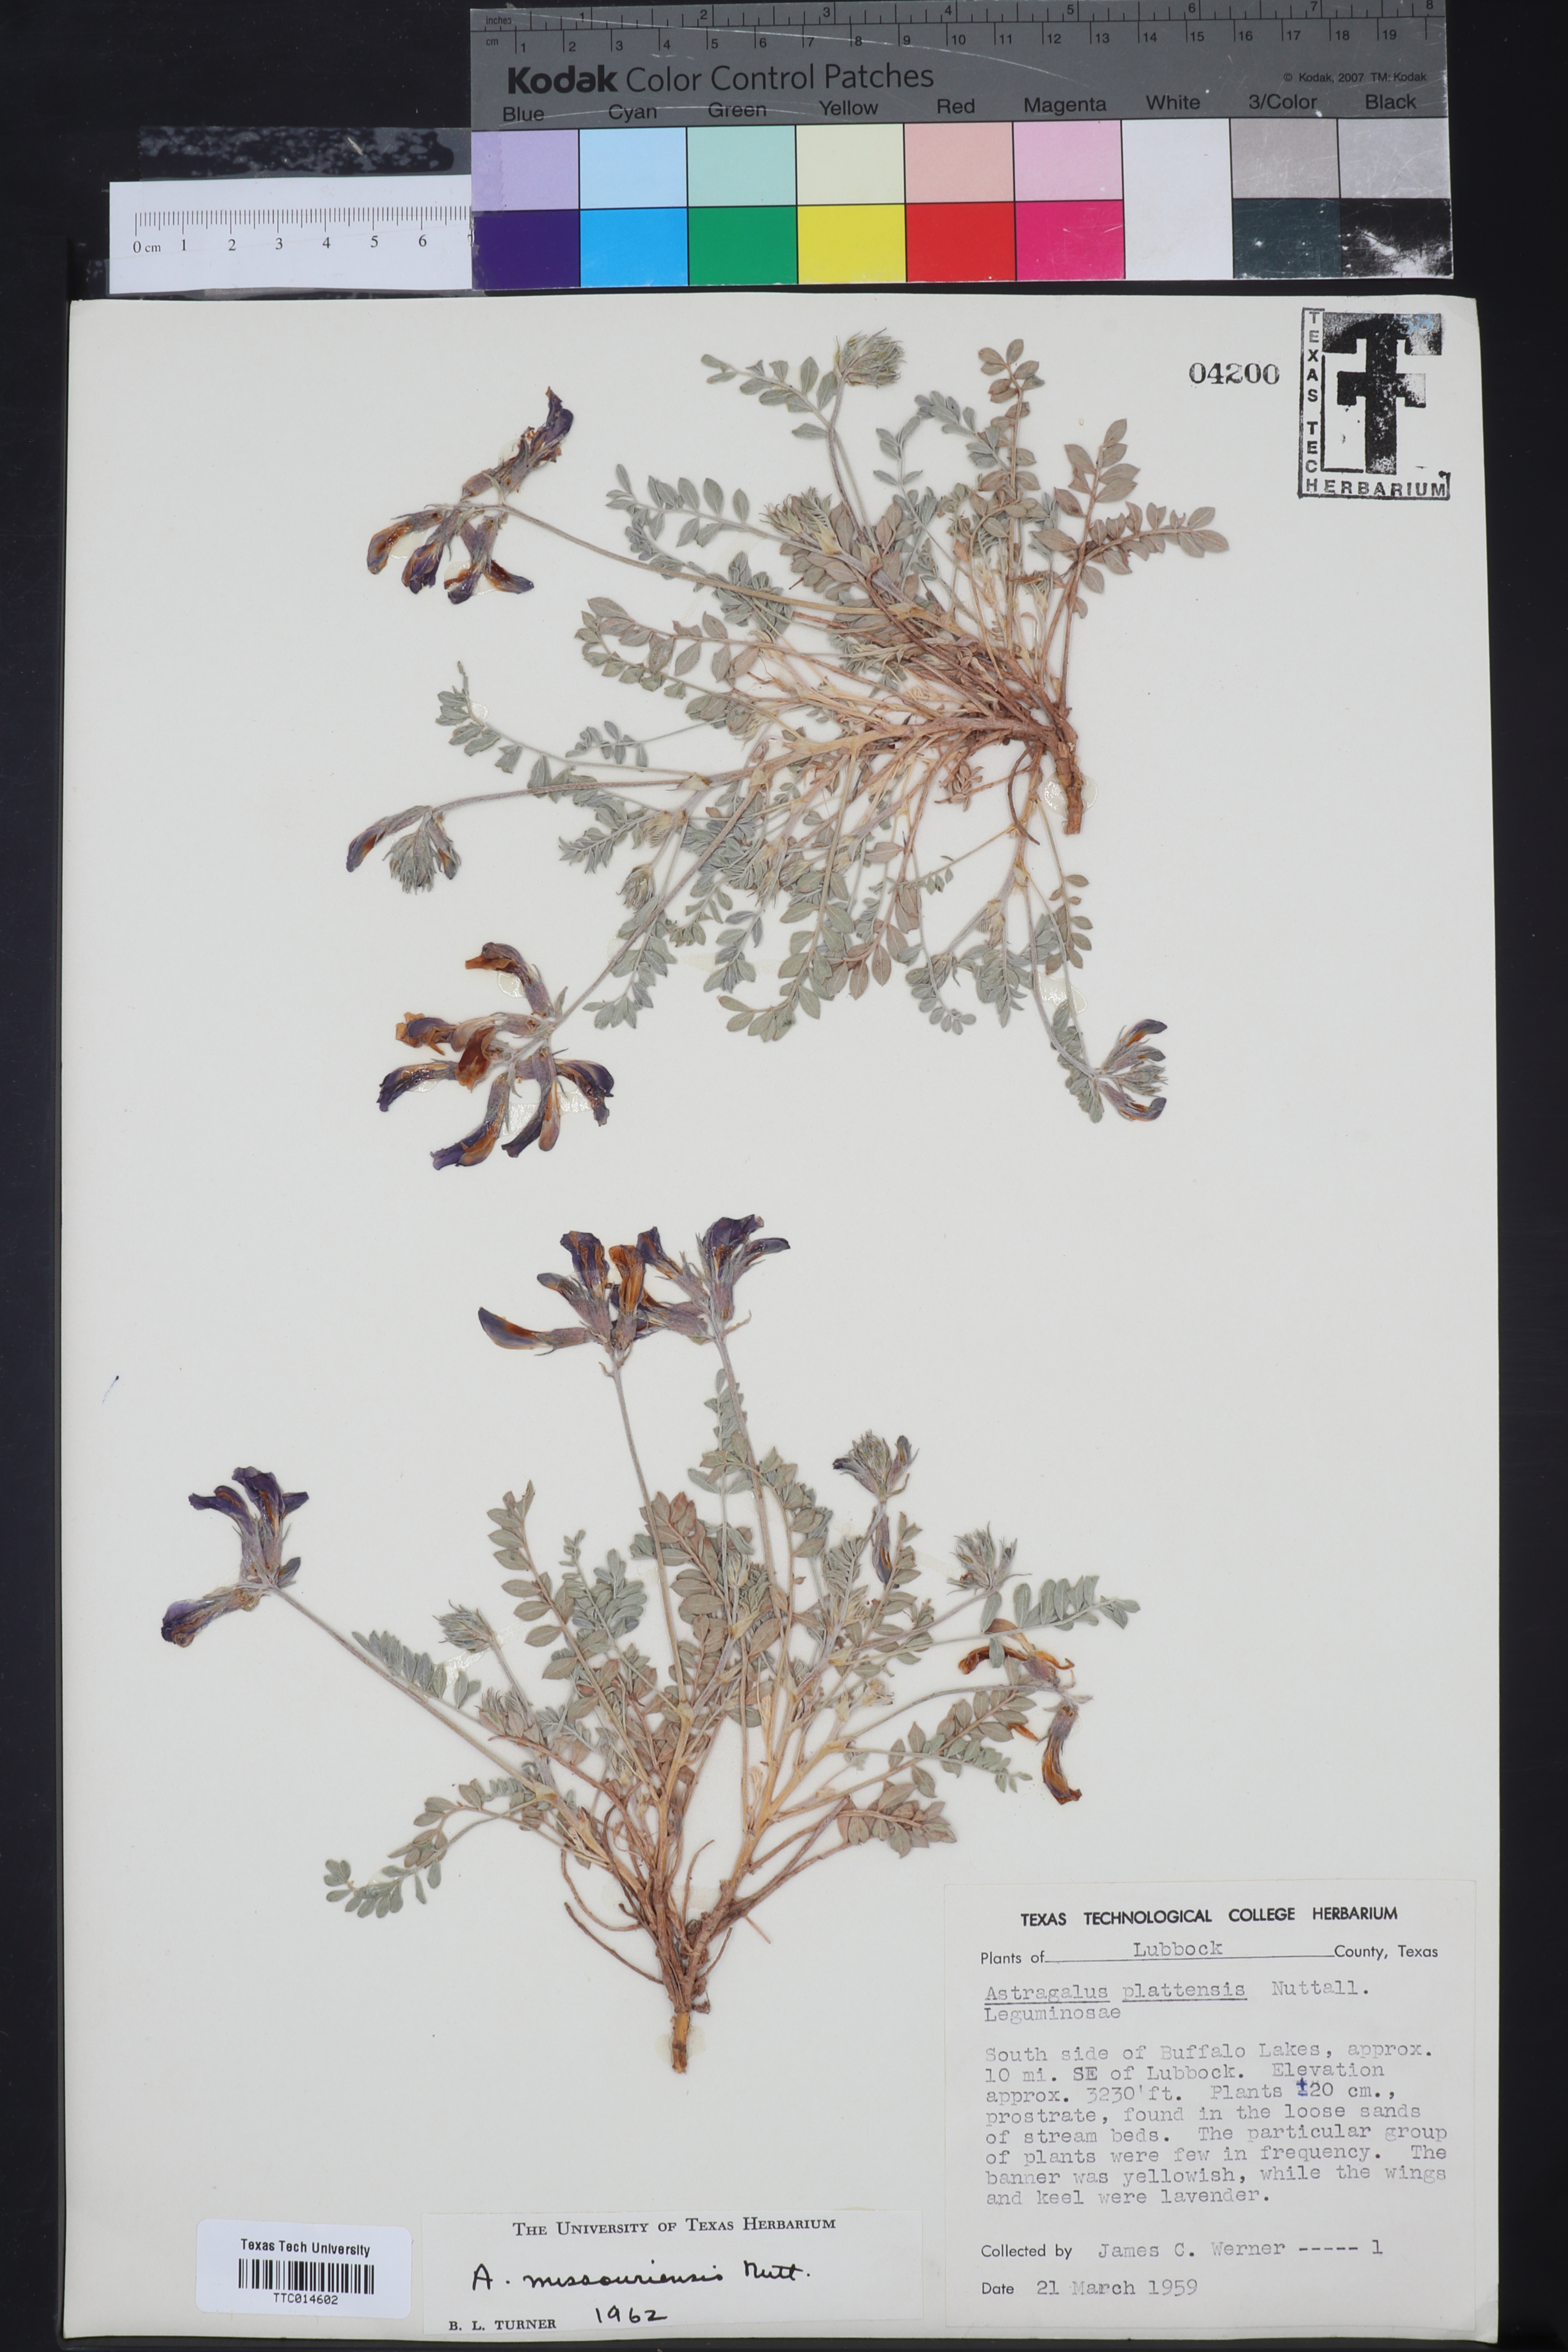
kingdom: Plantae
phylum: Tracheophyta
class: Magnoliopsida
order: Fabales
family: Fabaceae
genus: Astragalus
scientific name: Astragalus missouriensis
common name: Missouri milk-vetch
